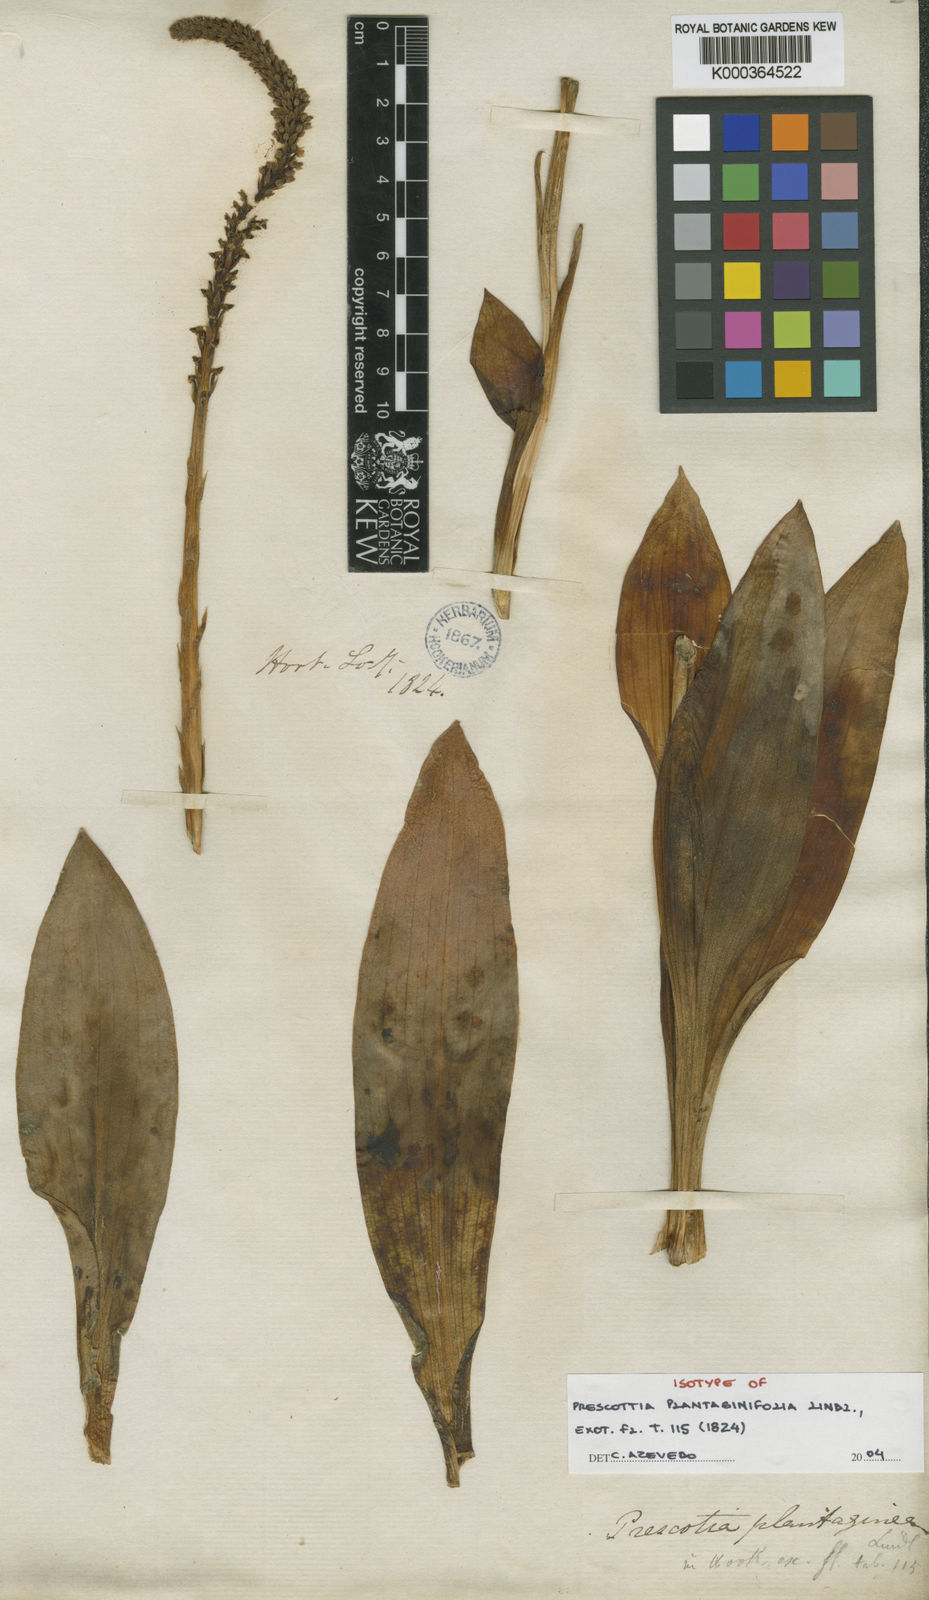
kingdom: Plantae
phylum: Tracheophyta
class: Liliopsida
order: Asparagales
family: Orchidaceae
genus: Prescottia
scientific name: Prescottia
